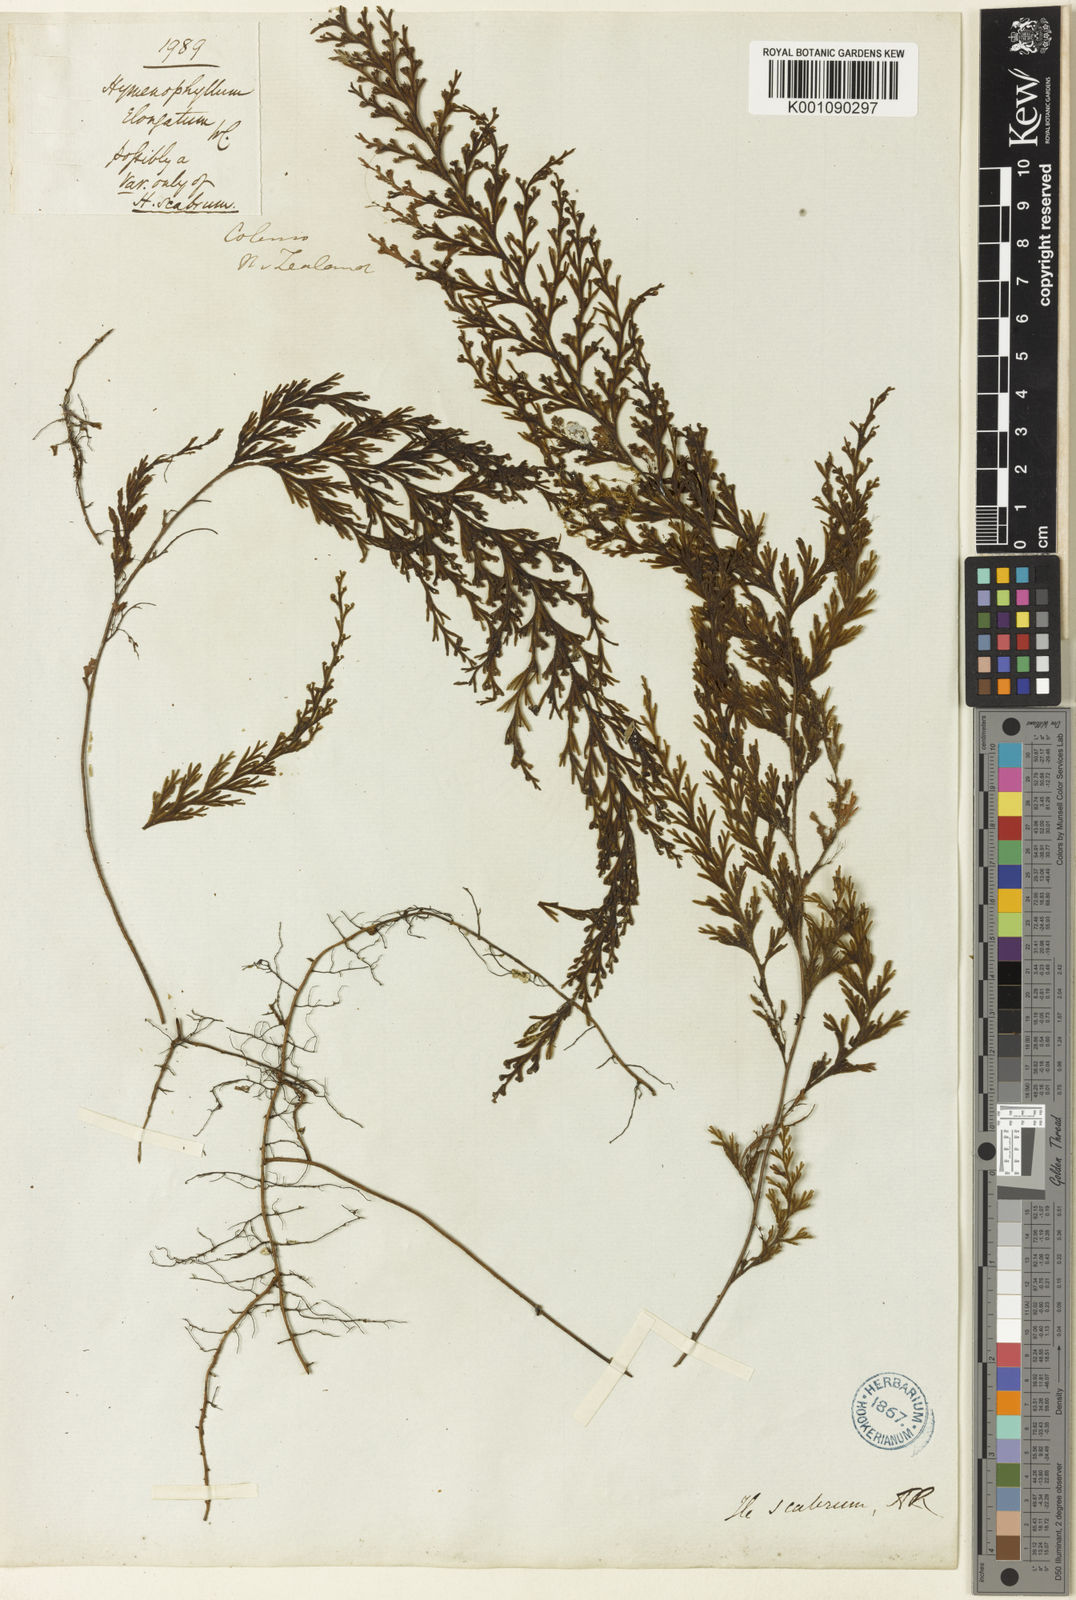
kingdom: Plantae
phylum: Tracheophyta
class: Polypodiopsida
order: Hymenophyllales
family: Hymenophyllaceae
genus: Hymenophyllum
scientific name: Hymenophyllum scabrum
